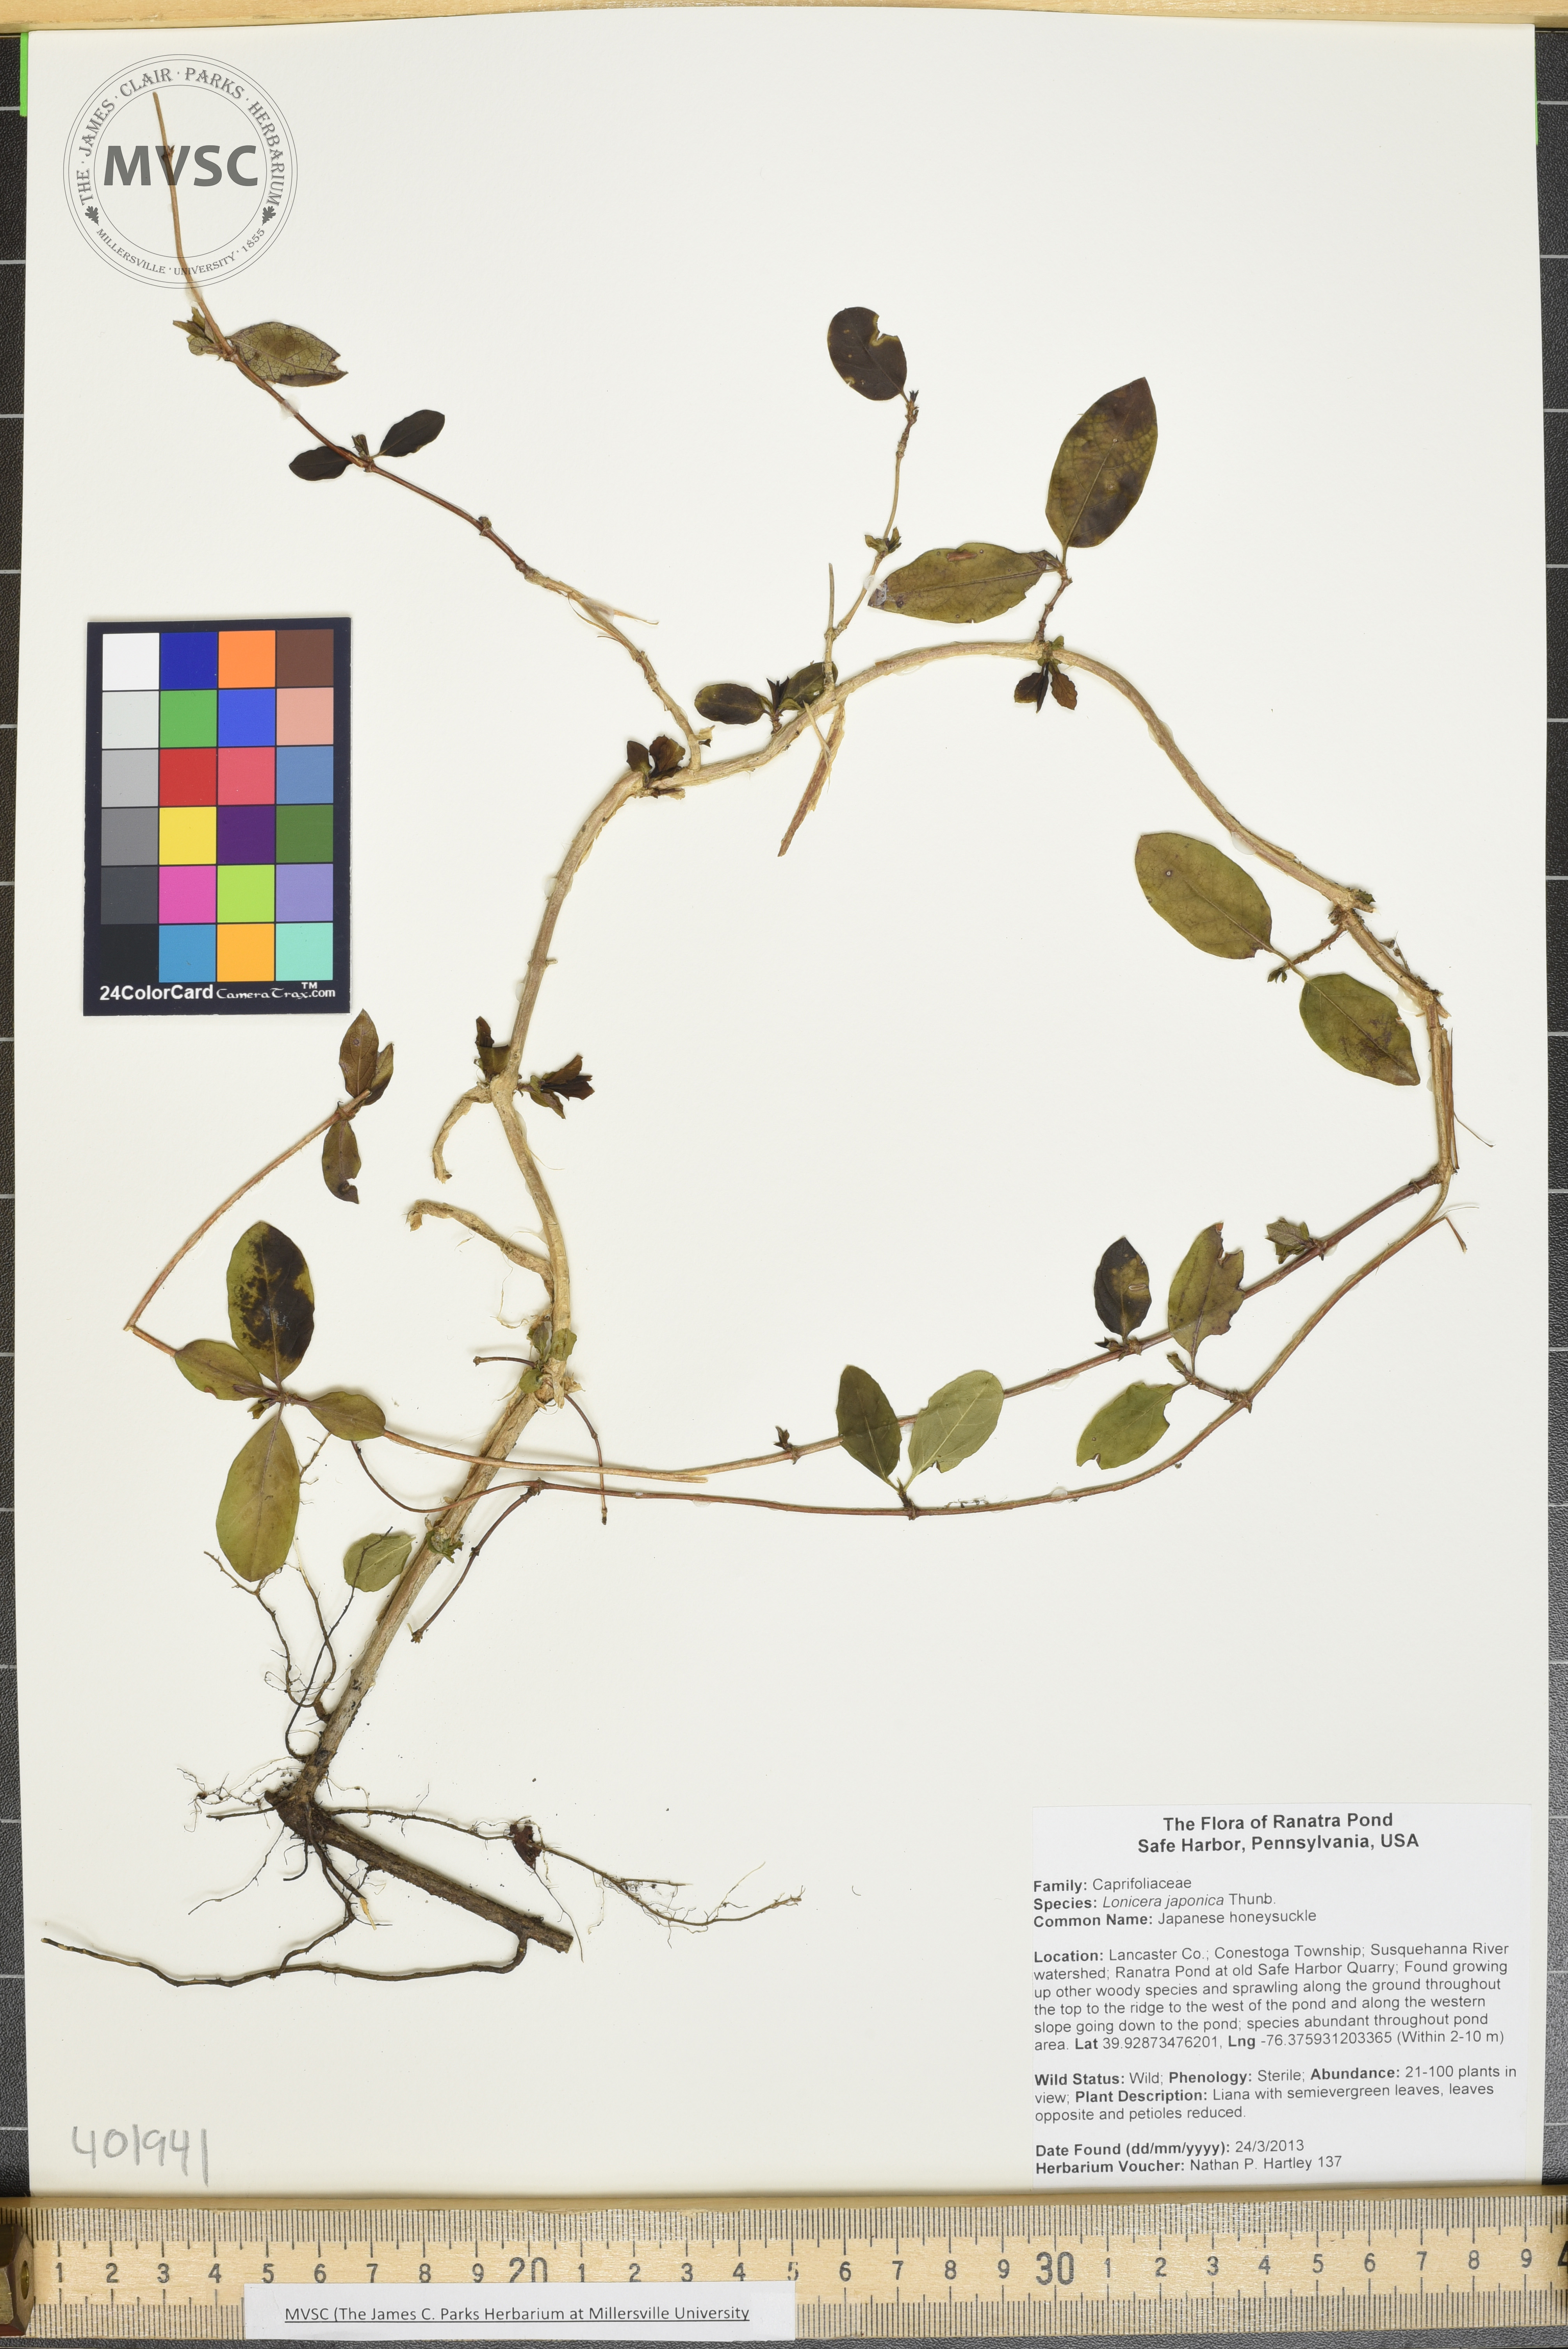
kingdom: Plantae
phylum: Tracheophyta
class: Magnoliopsida
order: Dipsacales
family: Caprifoliaceae
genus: Lonicera
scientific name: Lonicera japonica
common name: Japanese honeysuckle
